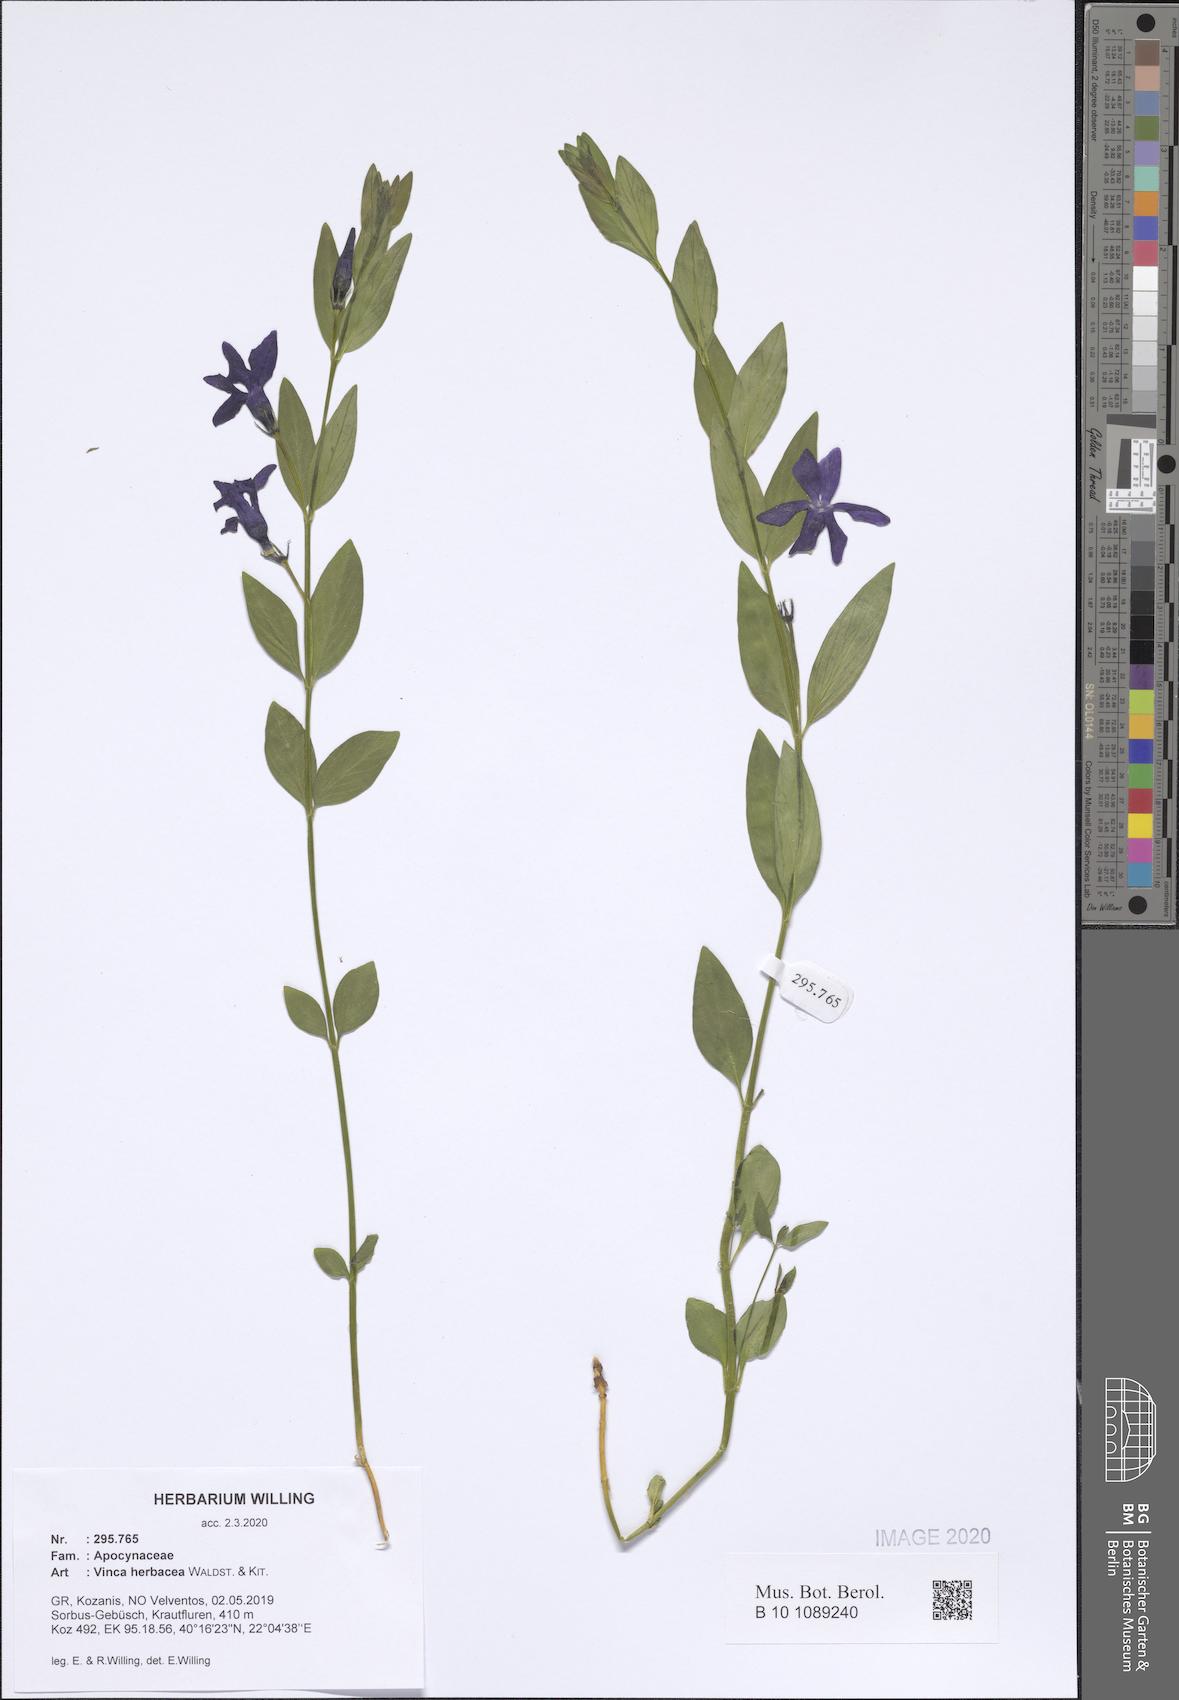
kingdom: Plantae
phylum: Tracheophyta
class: Magnoliopsida
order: Gentianales
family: Apocynaceae
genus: Vinca
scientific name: Vinca herbacea
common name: Herbaceous periwinkle
